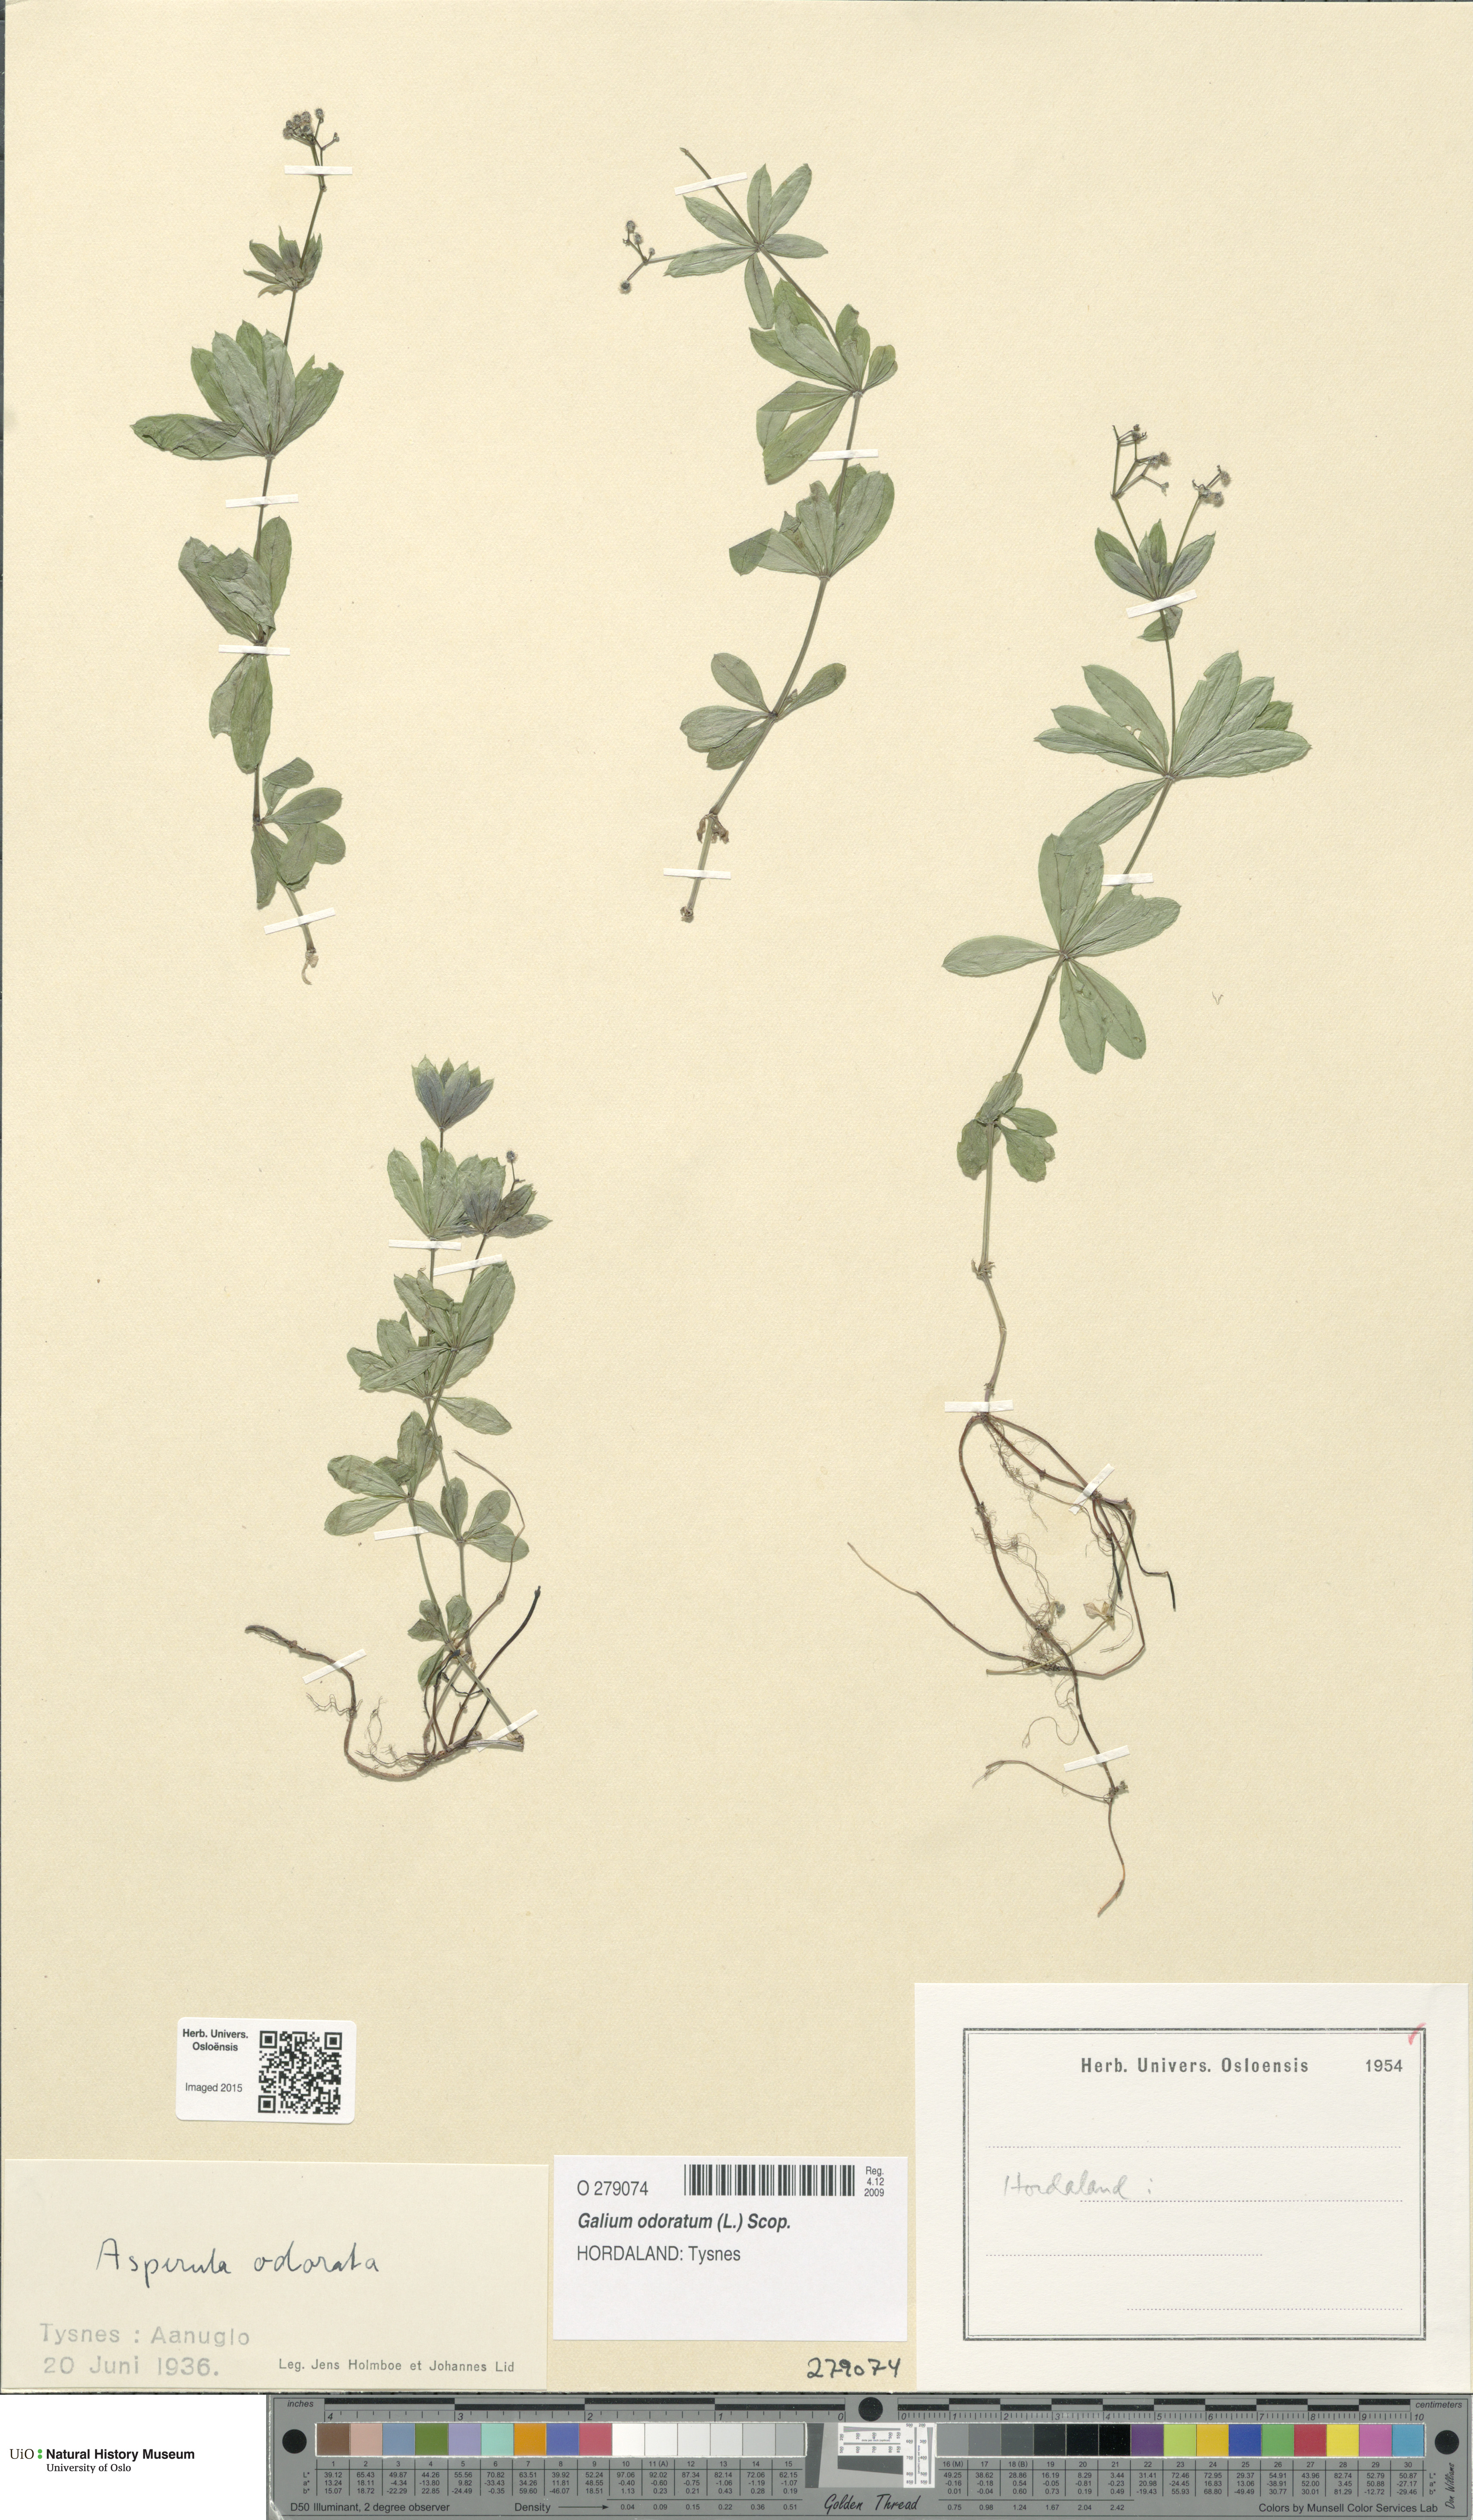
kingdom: Plantae
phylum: Tracheophyta
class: Magnoliopsida
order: Gentianales
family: Rubiaceae
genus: Galium
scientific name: Galium odoratum
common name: Sweet woodruff
